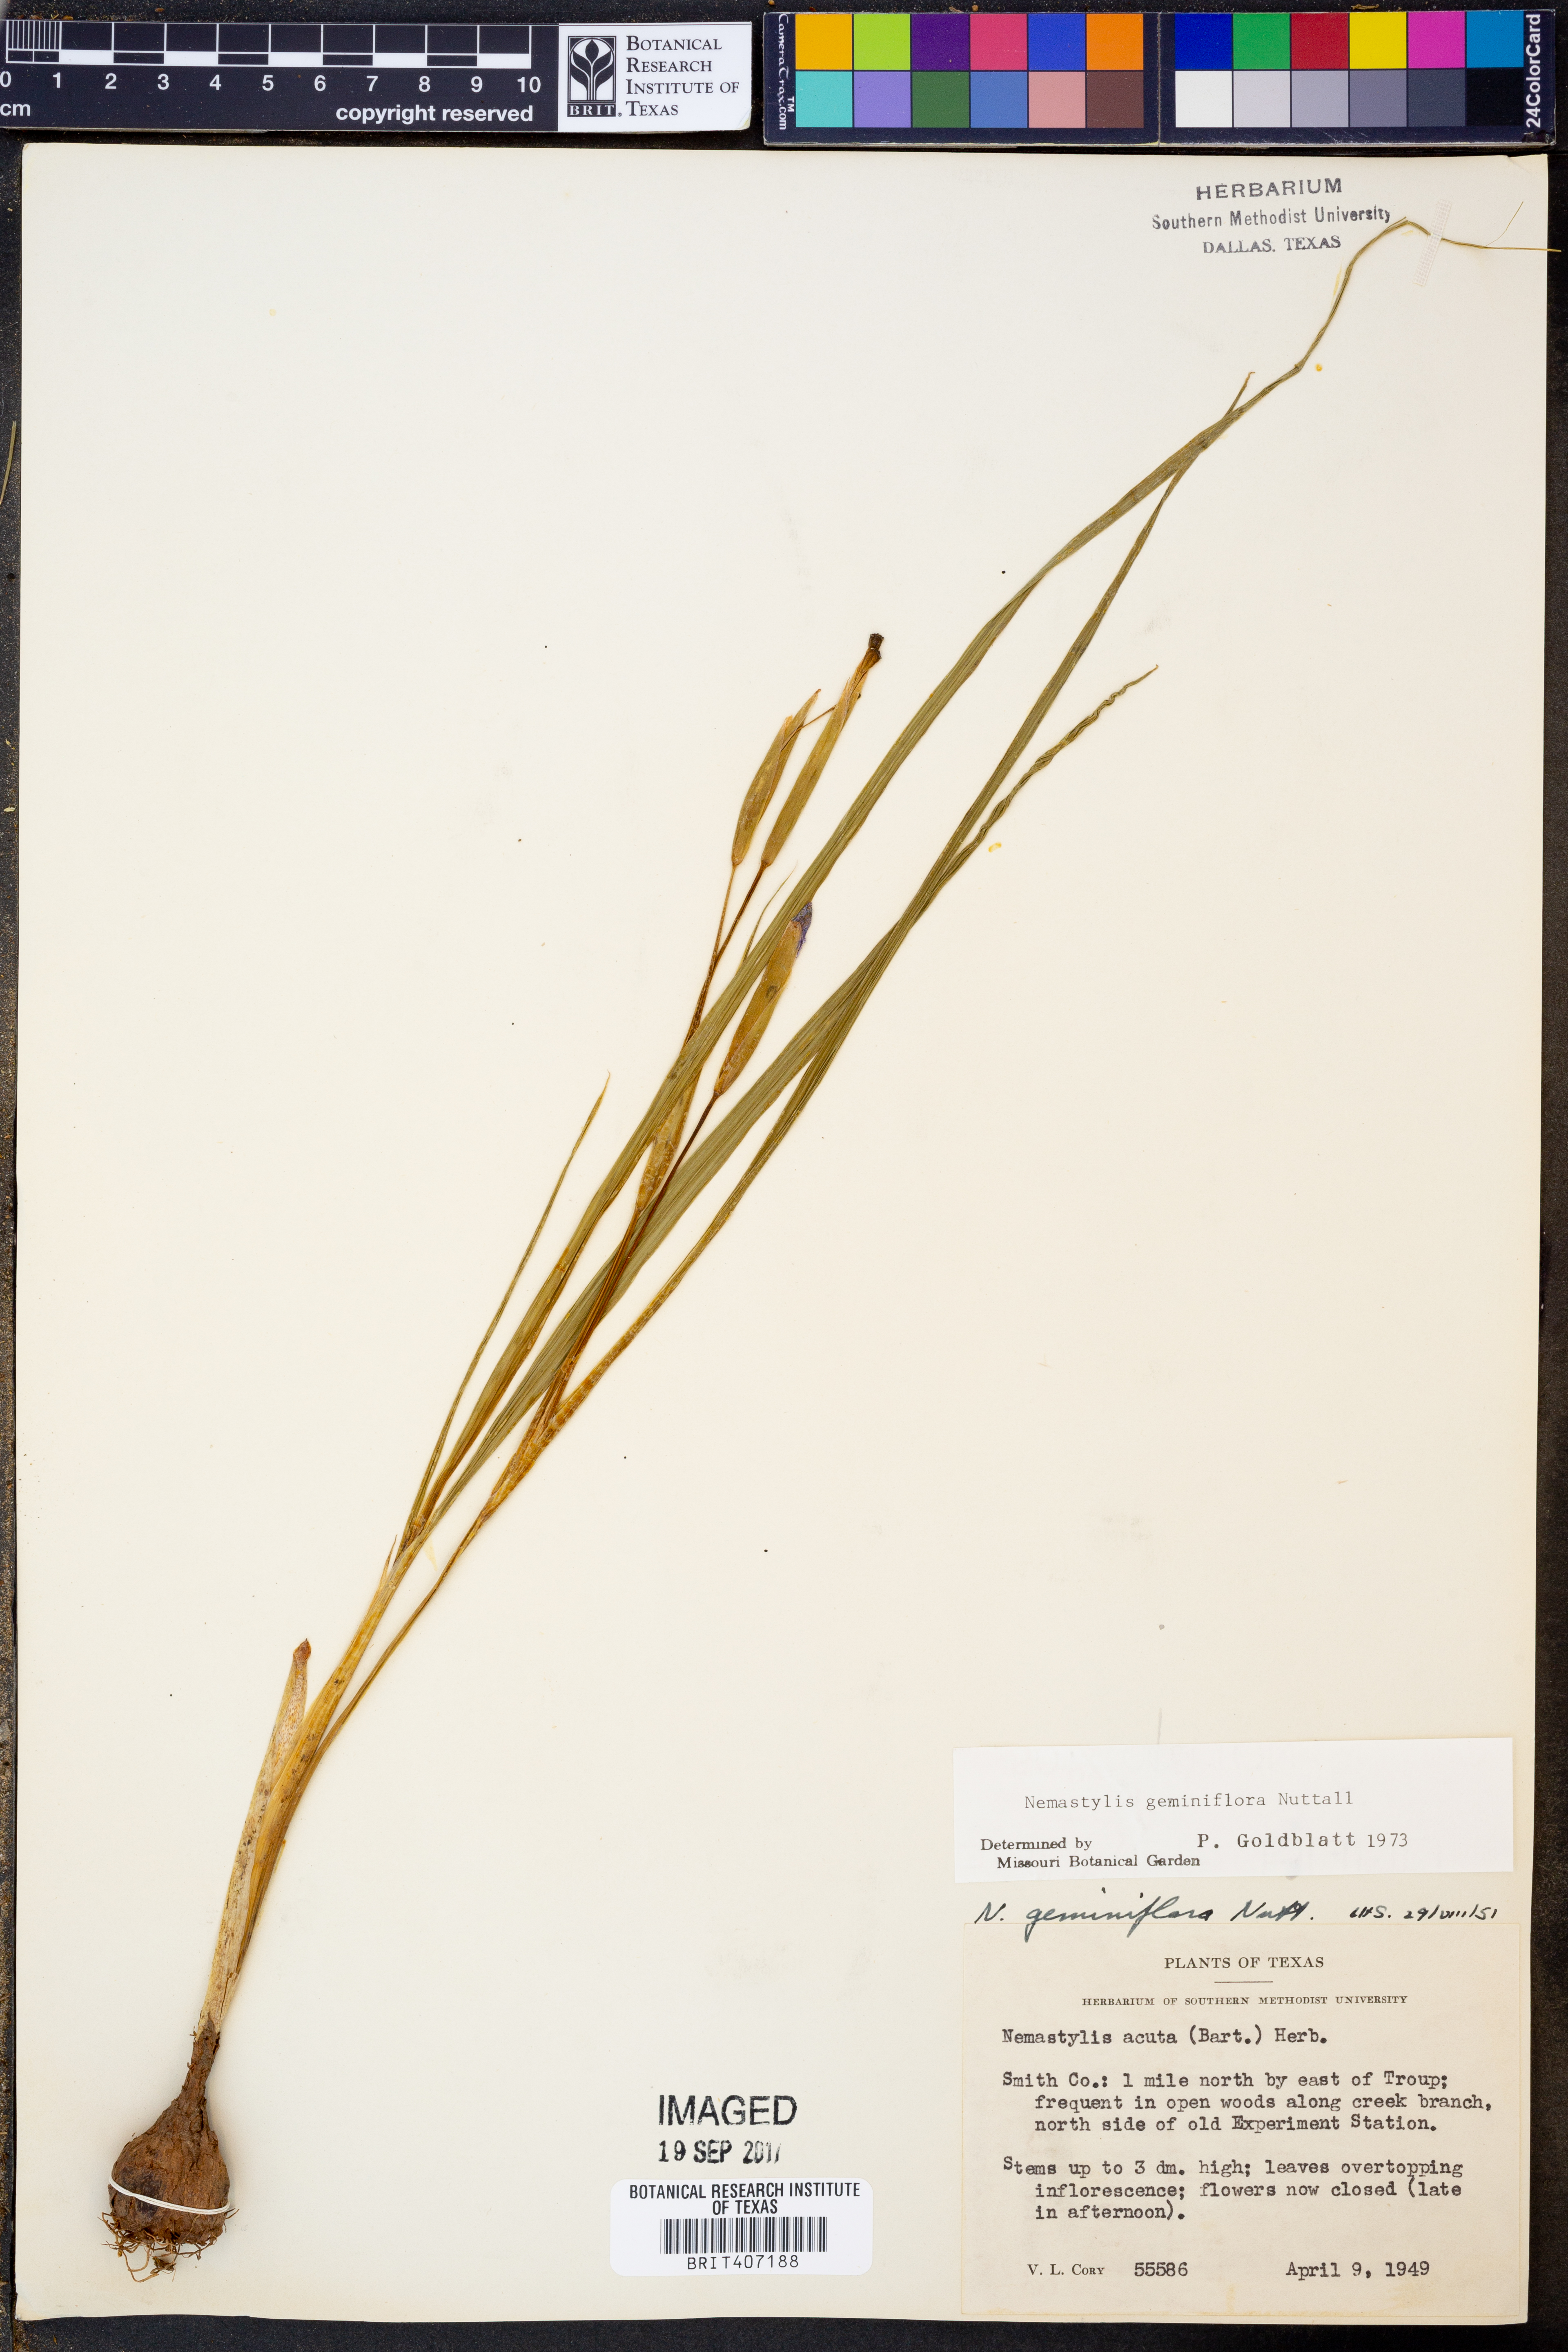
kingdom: Plantae
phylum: Tracheophyta
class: Liliopsida
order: Asparagales
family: Iridaceae
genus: Nemastylis
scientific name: Nemastylis geminiflora
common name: Prairie celestial
